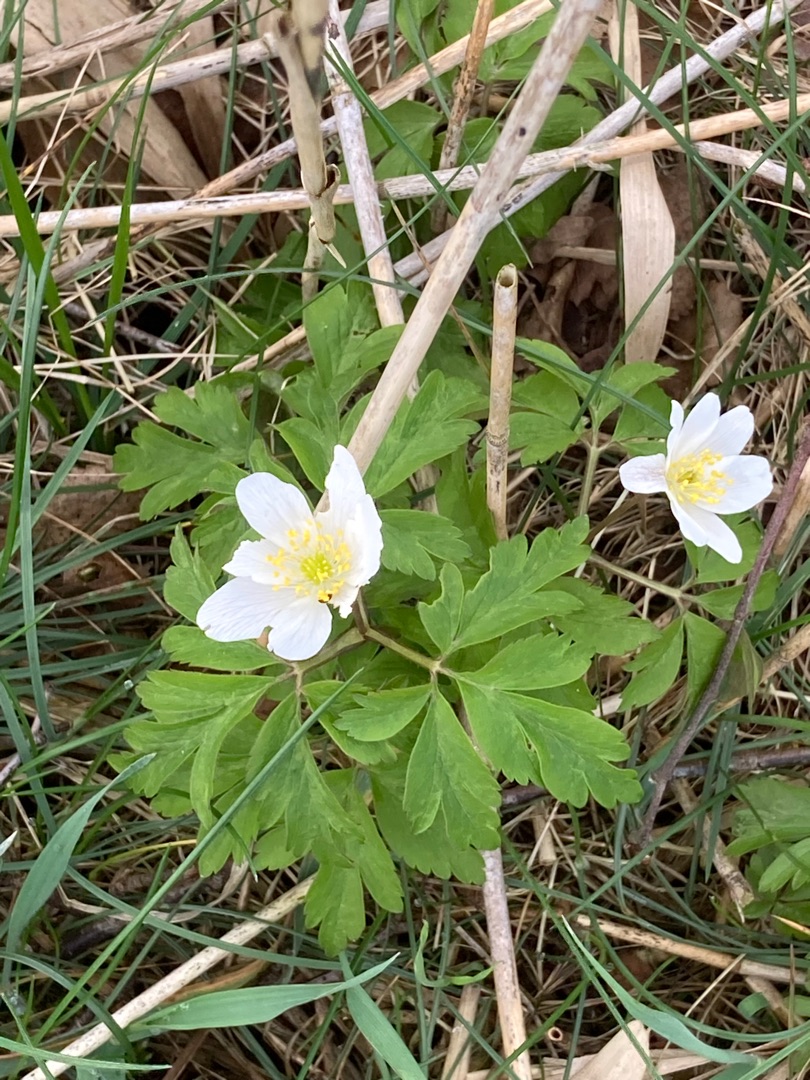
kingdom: Plantae
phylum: Tracheophyta
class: Magnoliopsida
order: Ranunculales
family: Ranunculaceae
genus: Anemone
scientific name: Anemone nemorosa
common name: Hvid anemone
